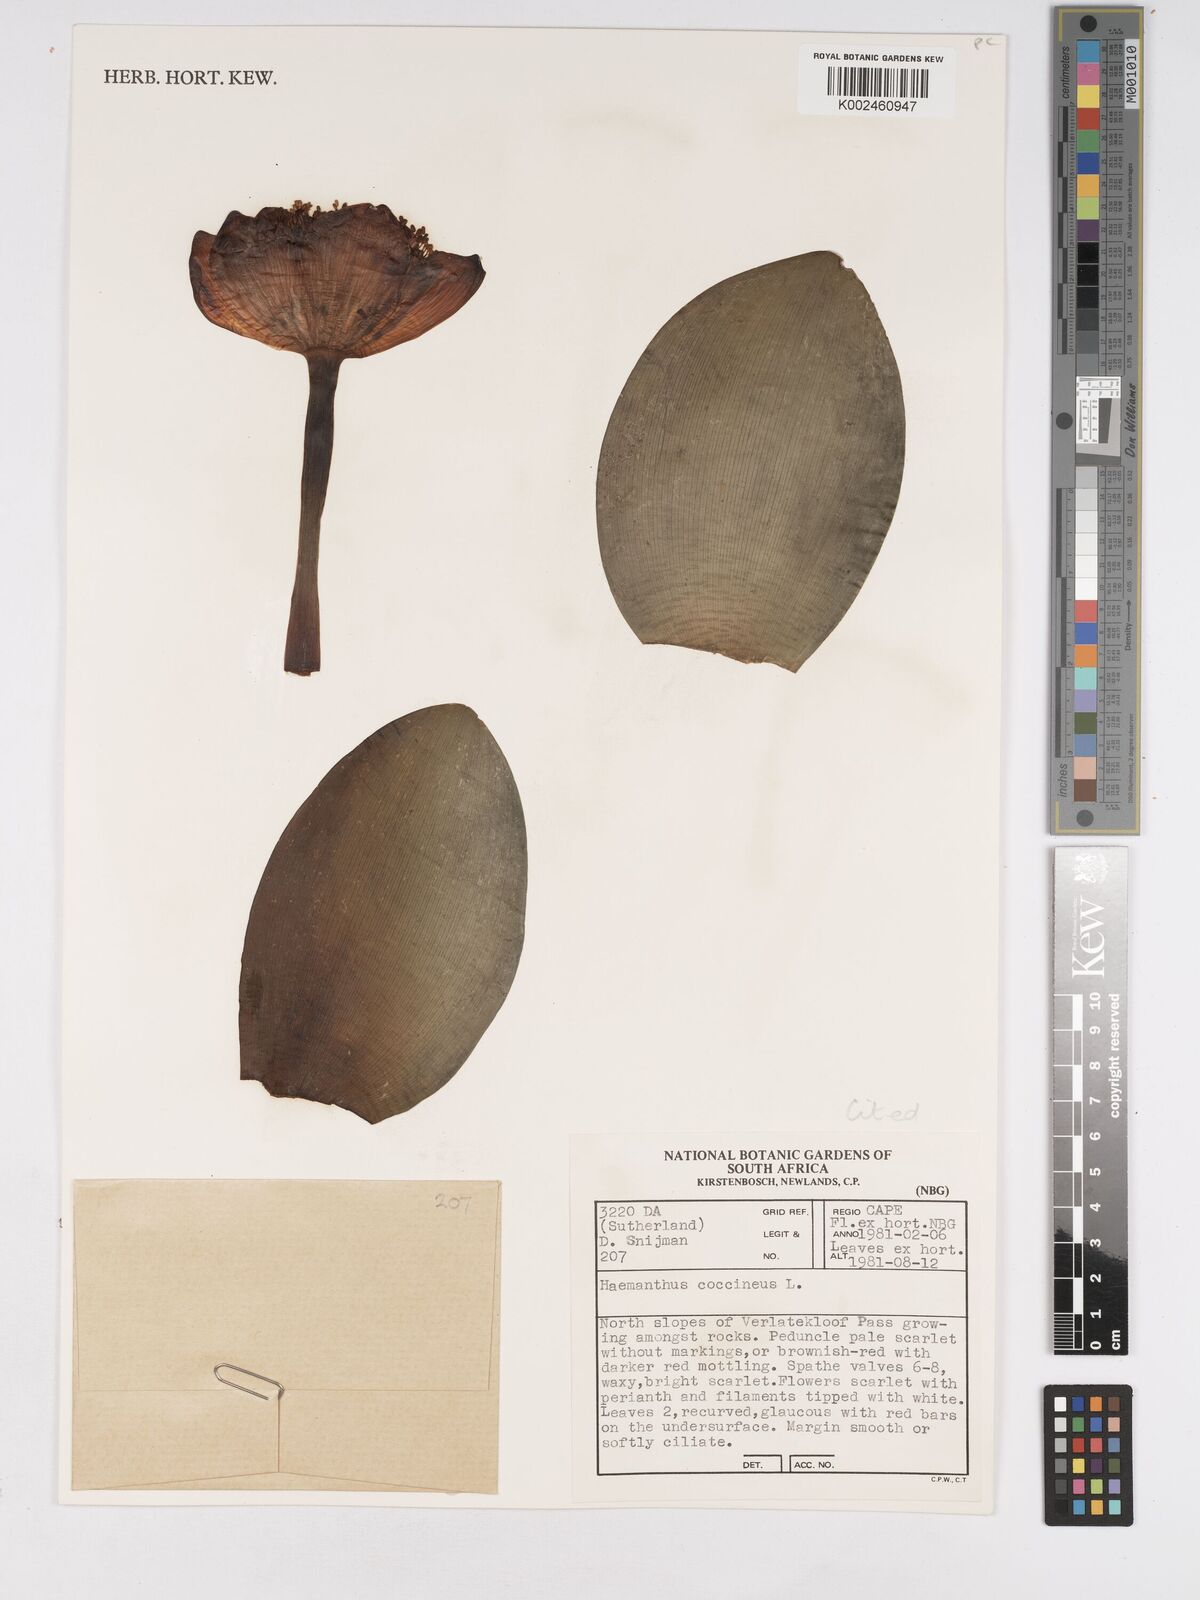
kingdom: Plantae
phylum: Tracheophyta
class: Liliopsida
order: Asparagales
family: Amaryllidaceae
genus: Haemanthus
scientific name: Haemanthus coccineus
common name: Cape-tulip
